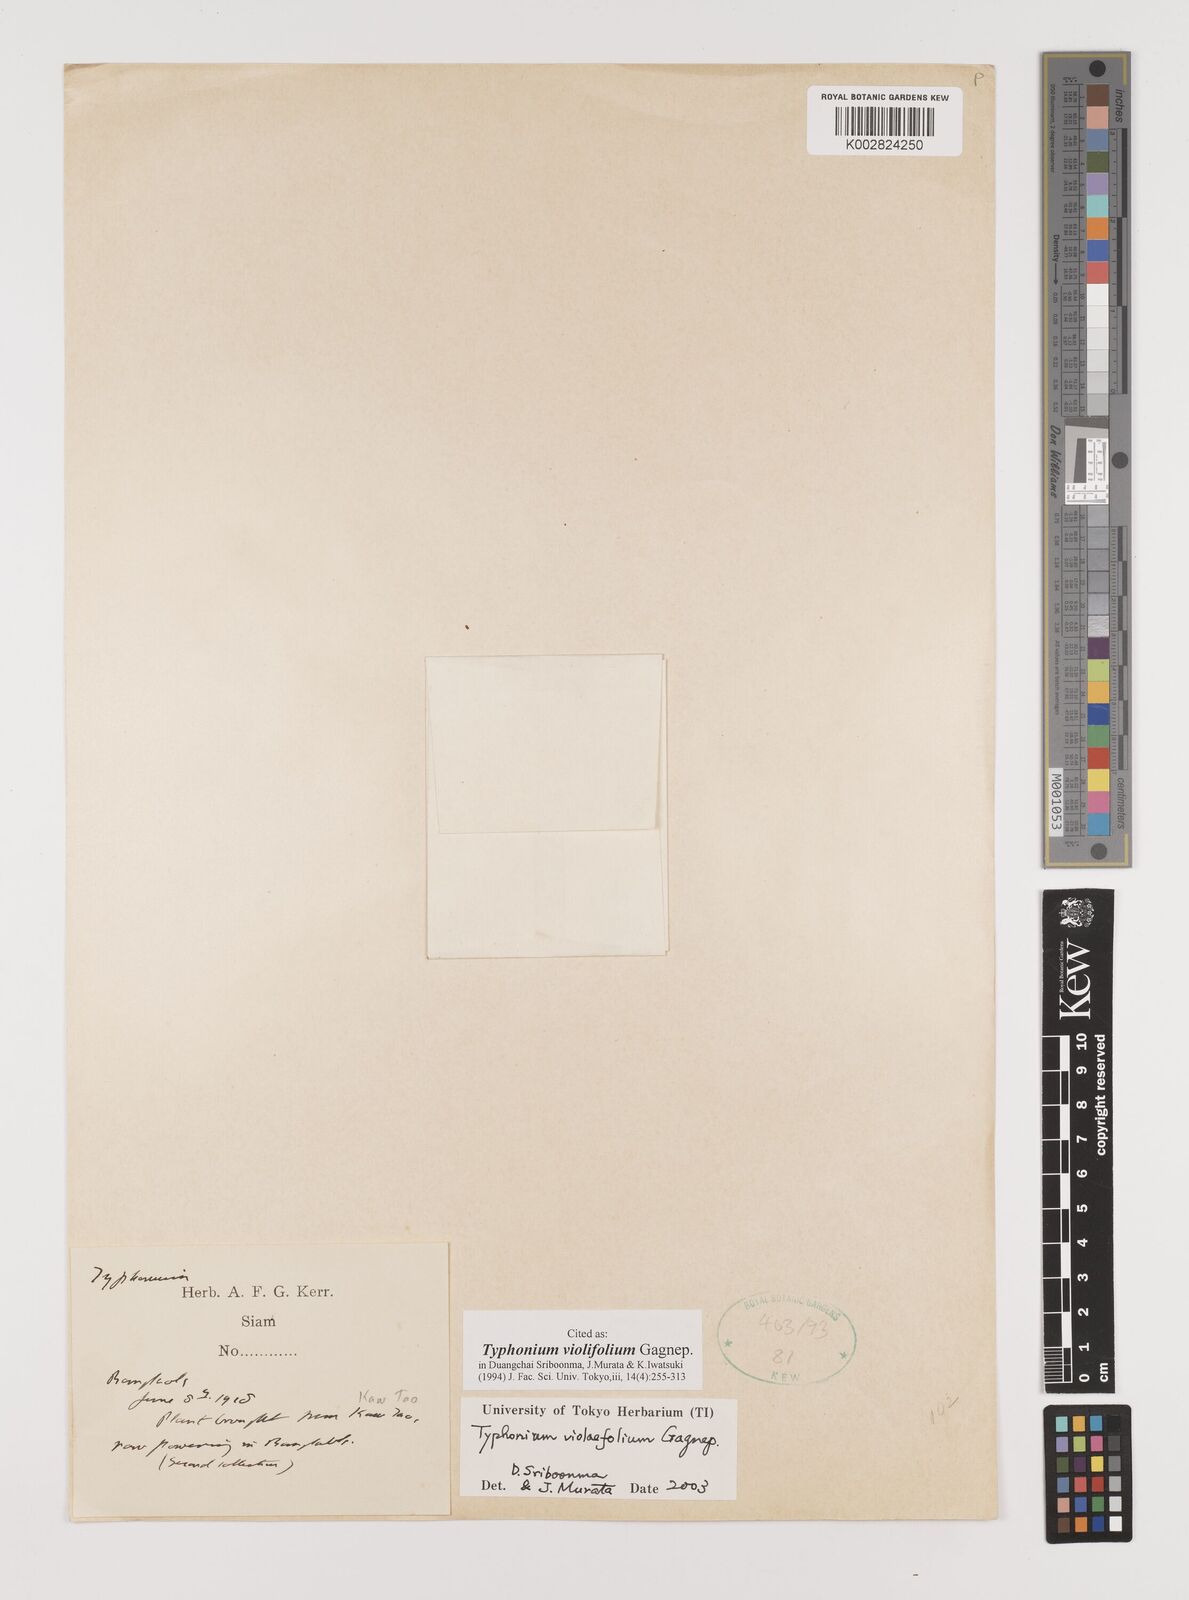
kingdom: Plantae
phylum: Tracheophyta
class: Liliopsida
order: Alismatales
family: Araceae
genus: Typhonium
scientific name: Typhonium violifolium
